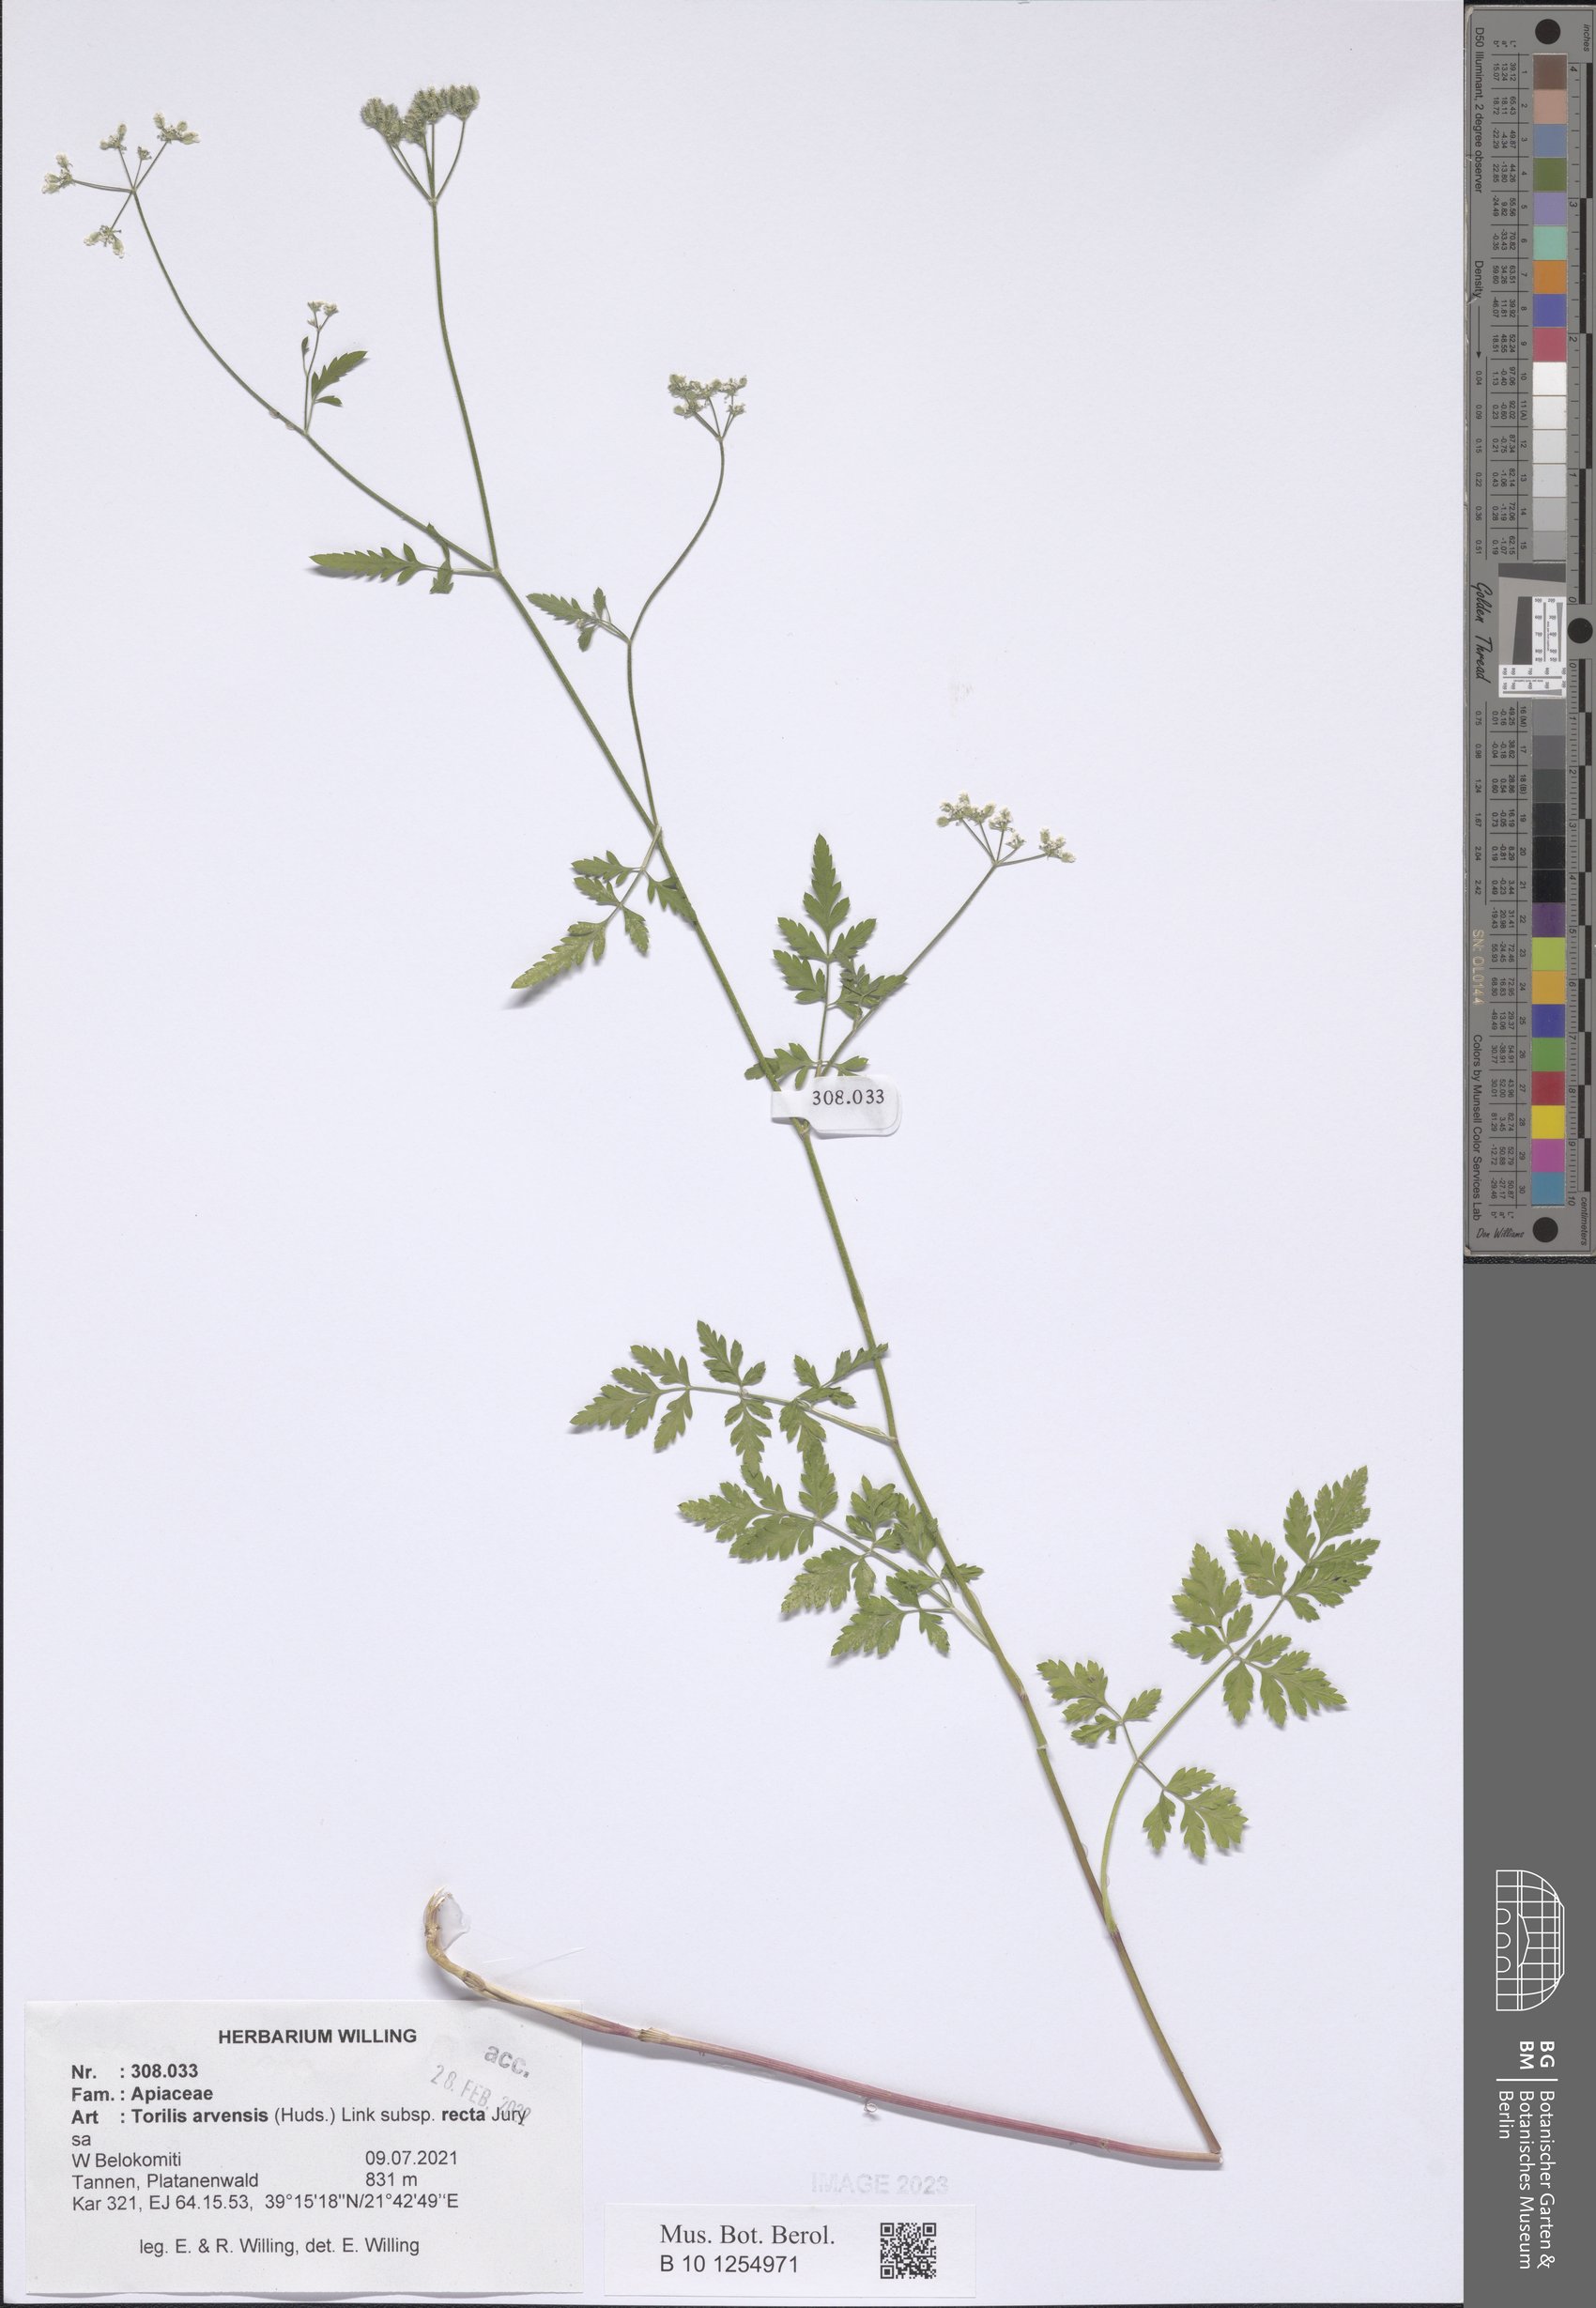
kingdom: Plantae
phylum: Tracheophyta
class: Magnoliopsida
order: Apiales
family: Apiaceae
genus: Torilis
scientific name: Torilis arvensis
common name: Spreading hedge-parsley
